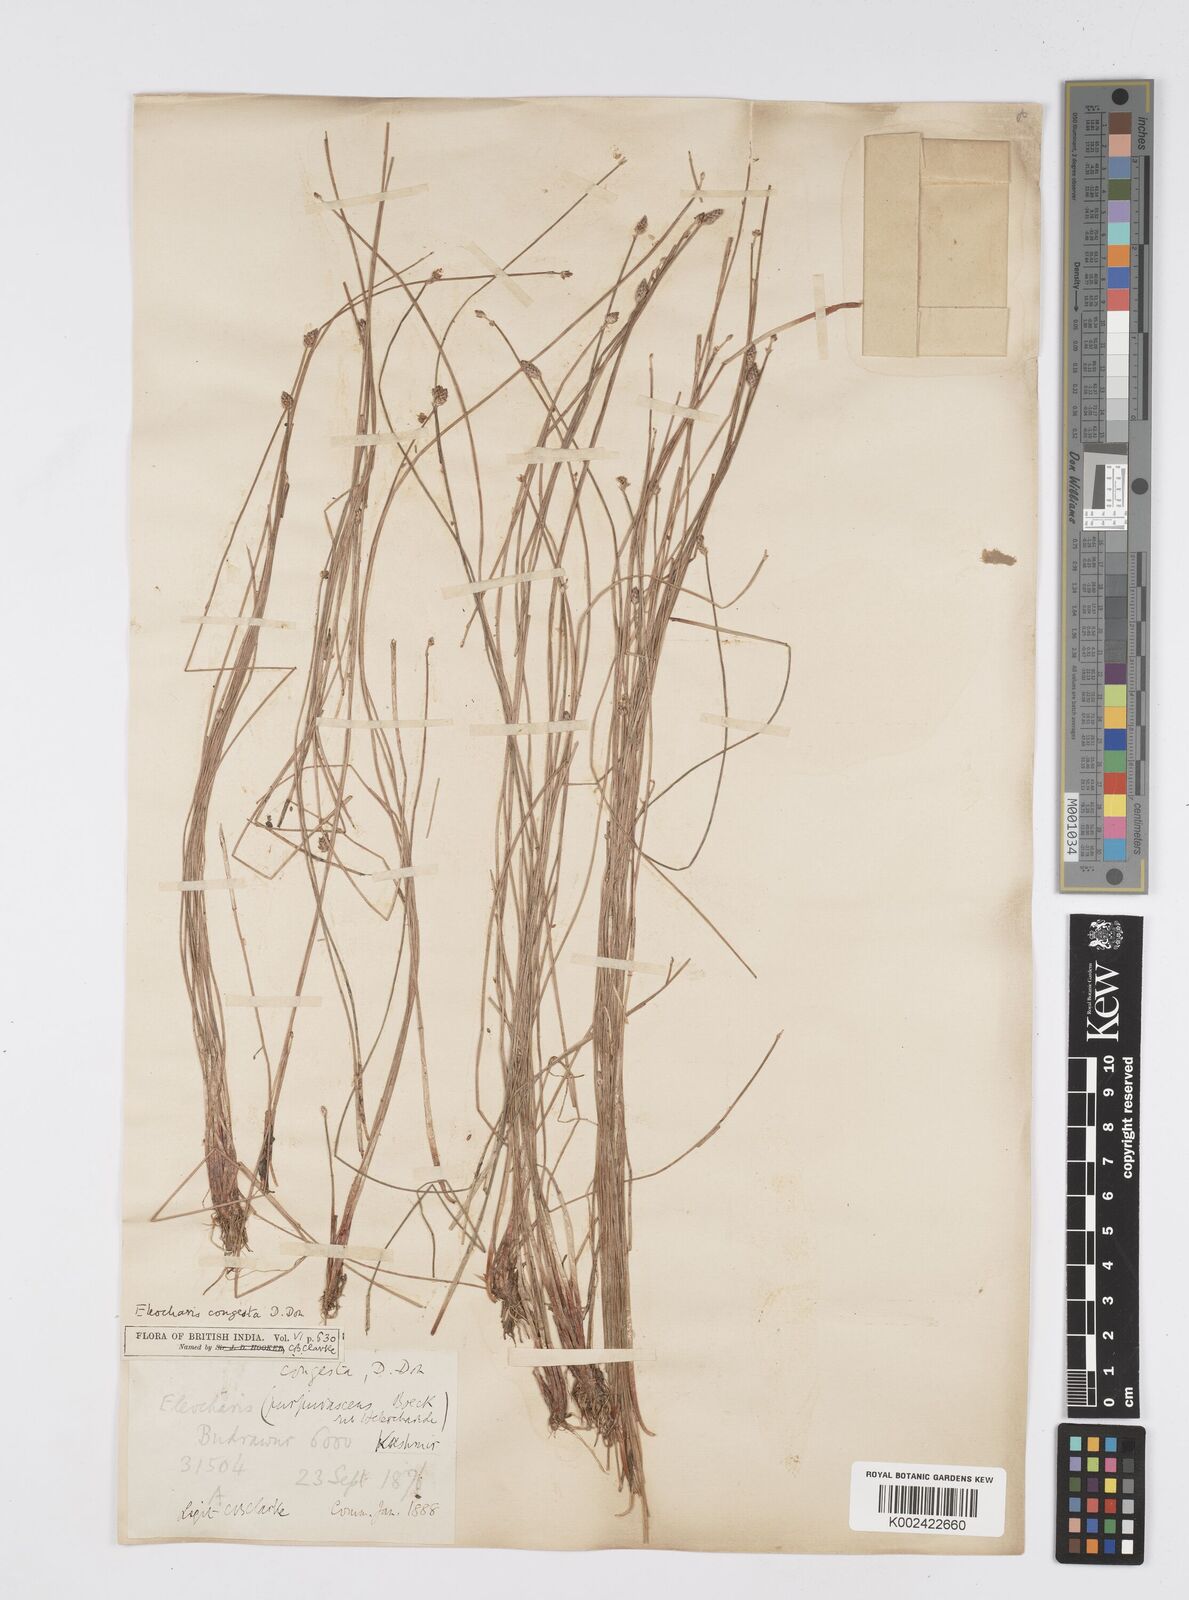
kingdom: Plantae
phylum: Tracheophyta
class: Liliopsida
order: Poales
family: Cyperaceae
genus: Eleocharis
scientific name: Eleocharis congesta
